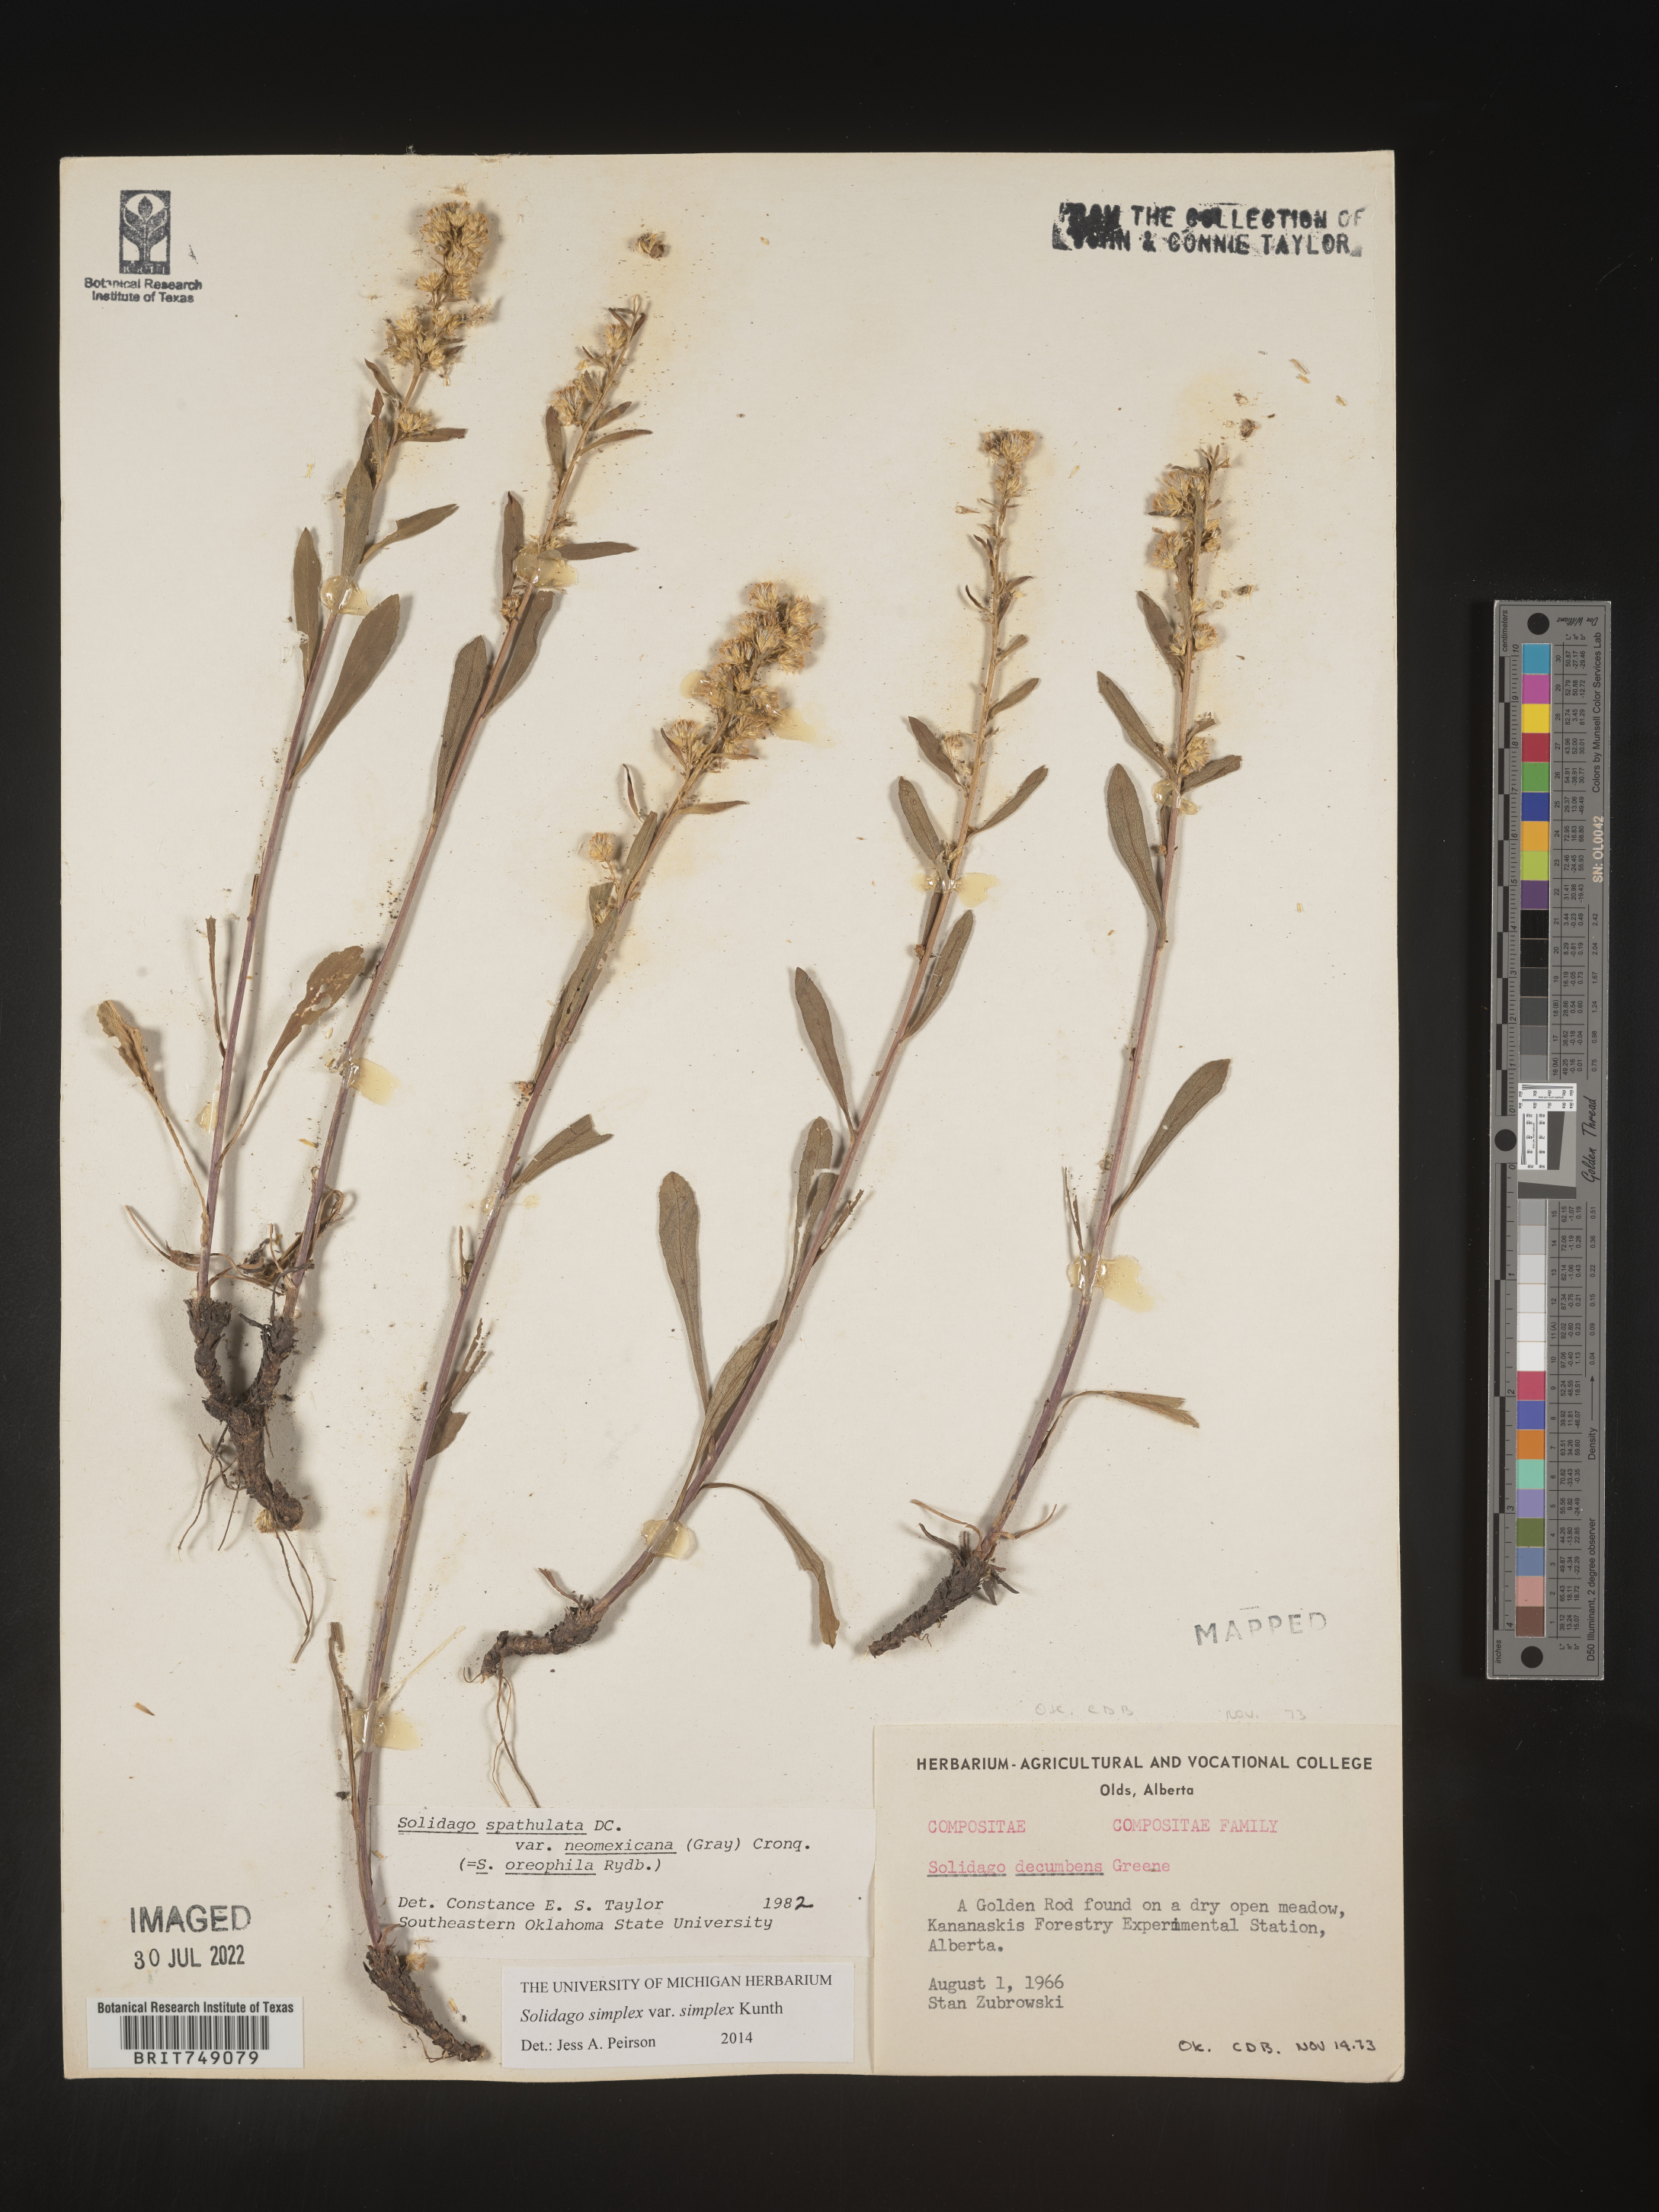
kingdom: Plantae
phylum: Tracheophyta
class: Magnoliopsida
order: Asterales
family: Asteraceae
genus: Solidago
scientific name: Solidago simplex
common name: Sticky goldenrod
